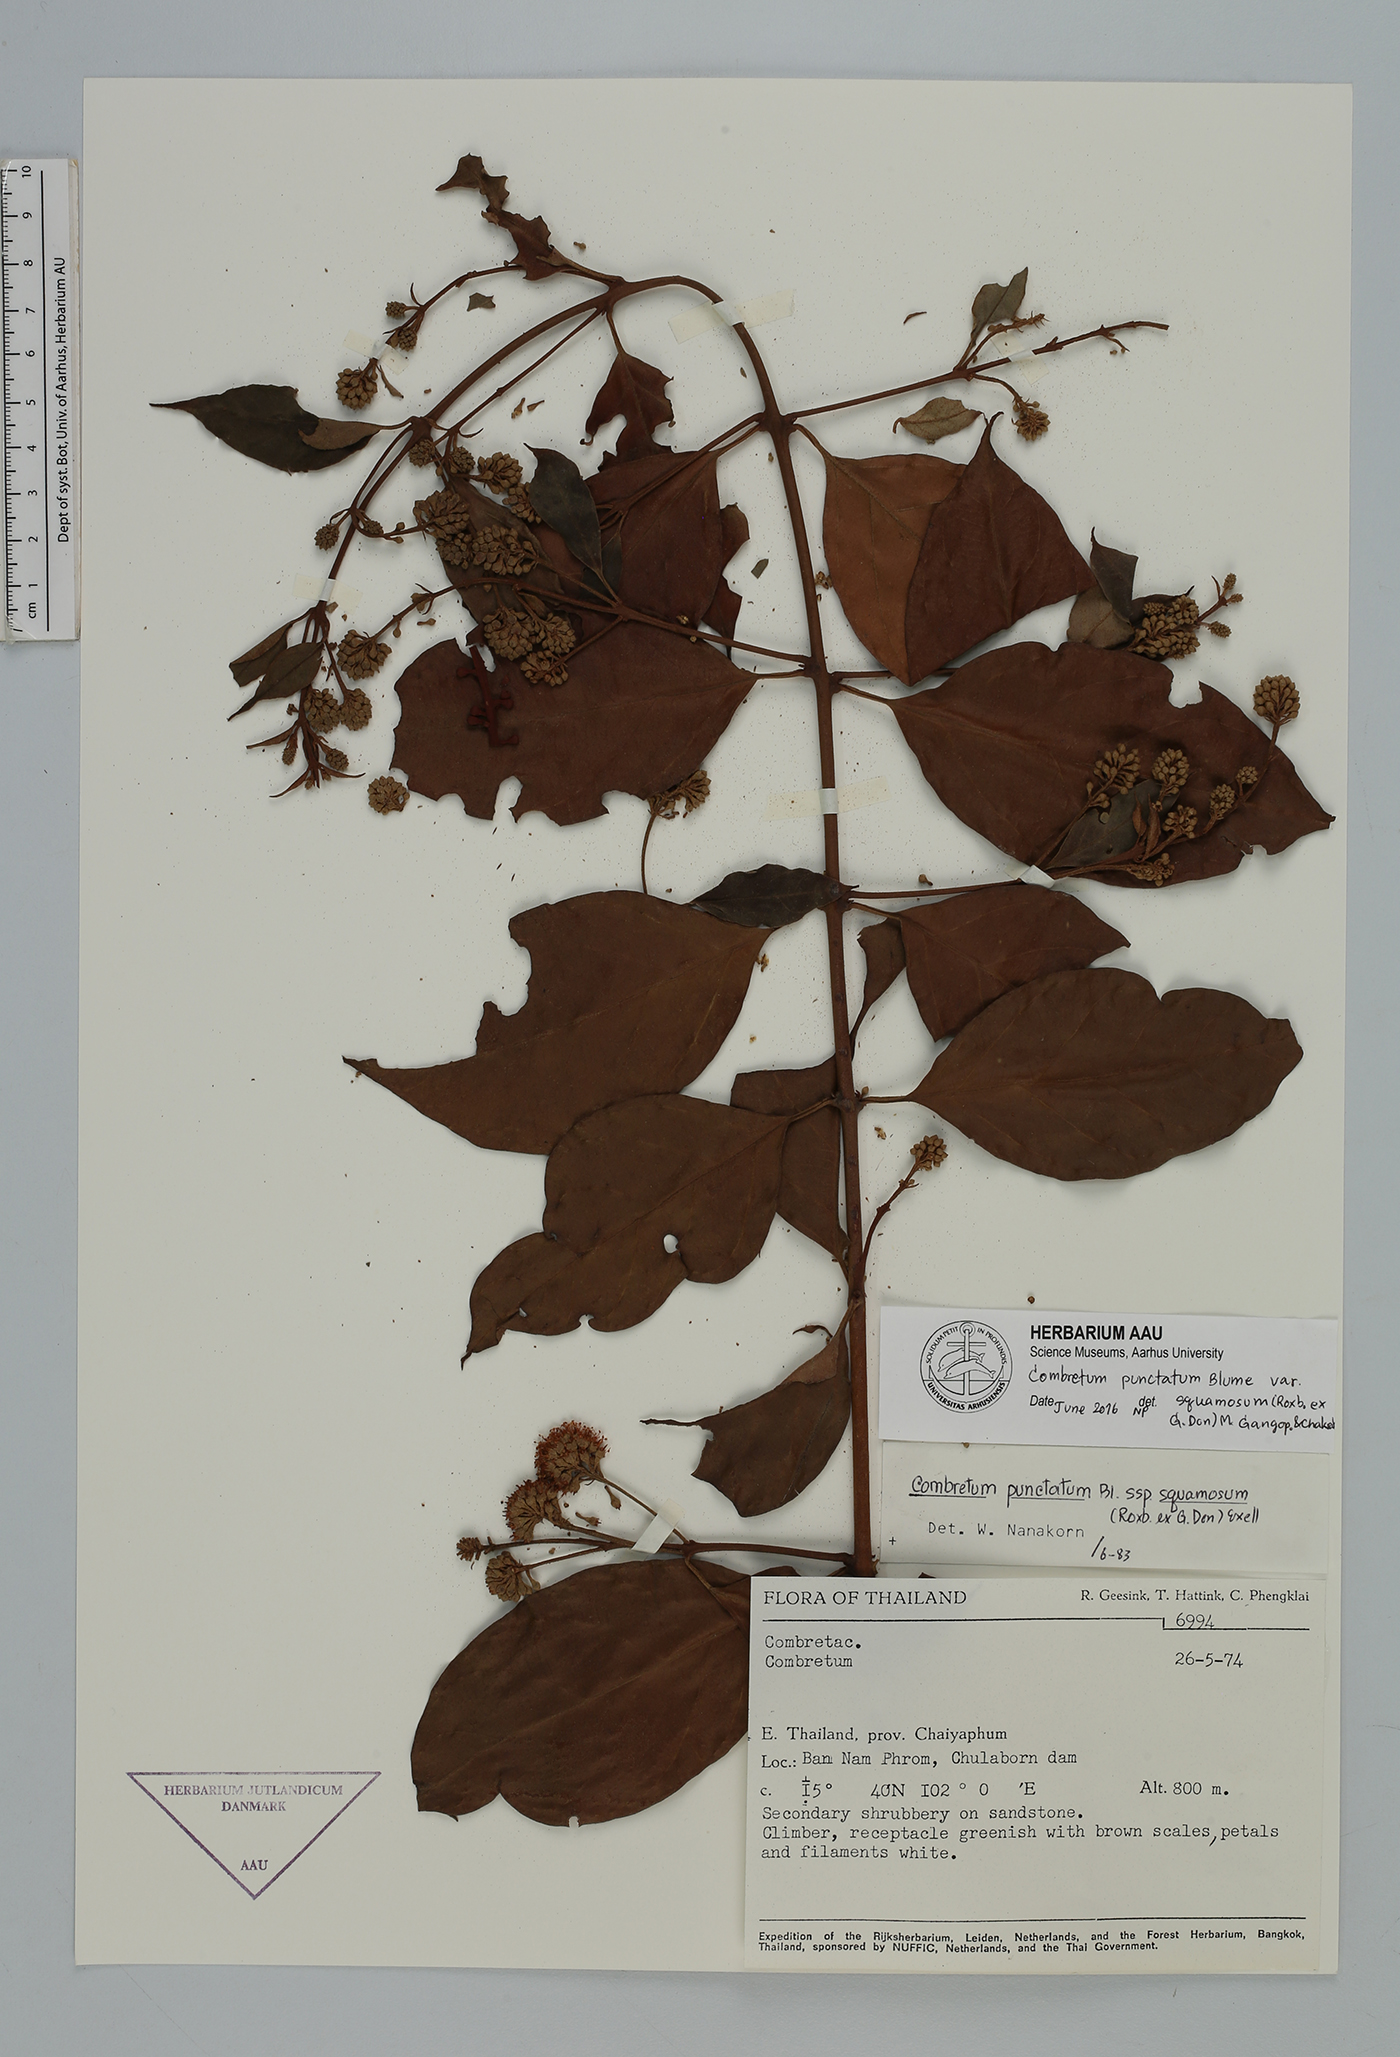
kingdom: Plantae
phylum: Tracheophyta
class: Magnoliopsida
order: Myrtales
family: Combretaceae
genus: Combretum
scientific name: Combretum punctatum
